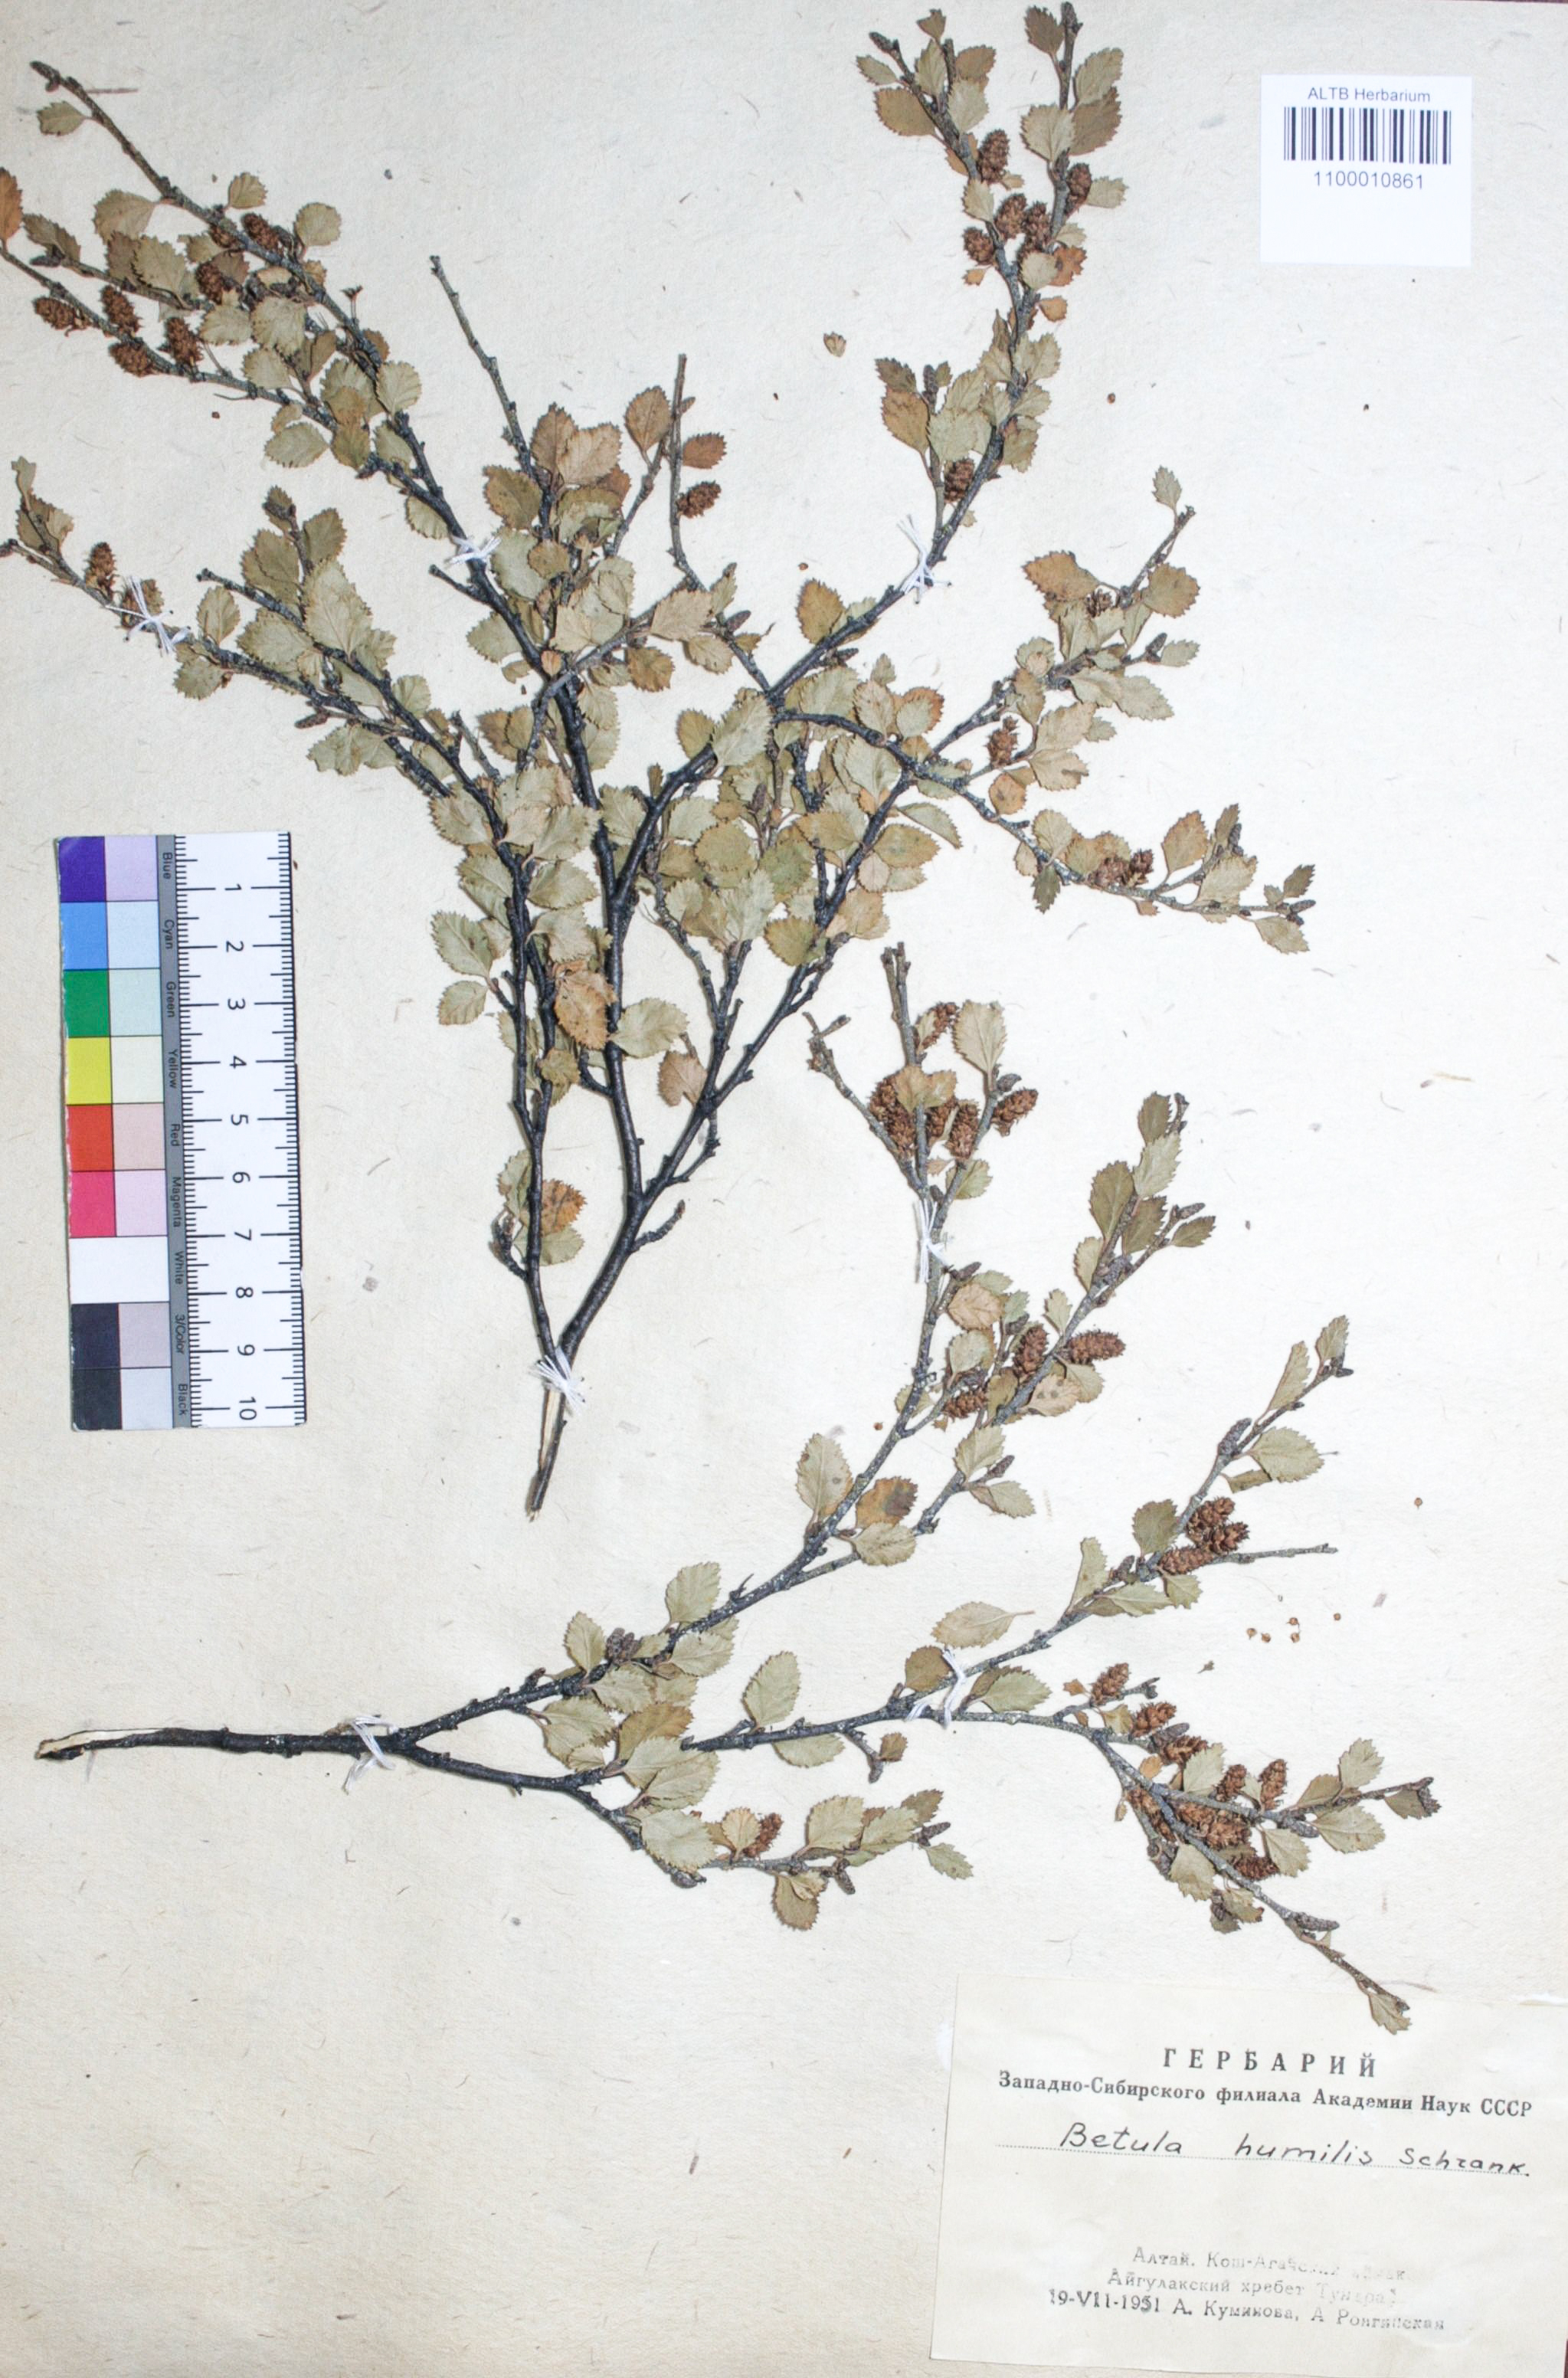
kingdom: Plantae
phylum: Tracheophyta
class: Magnoliopsida
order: Fagales
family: Betulaceae
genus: Betula
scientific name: Betula humilis
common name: Shrubby birch
